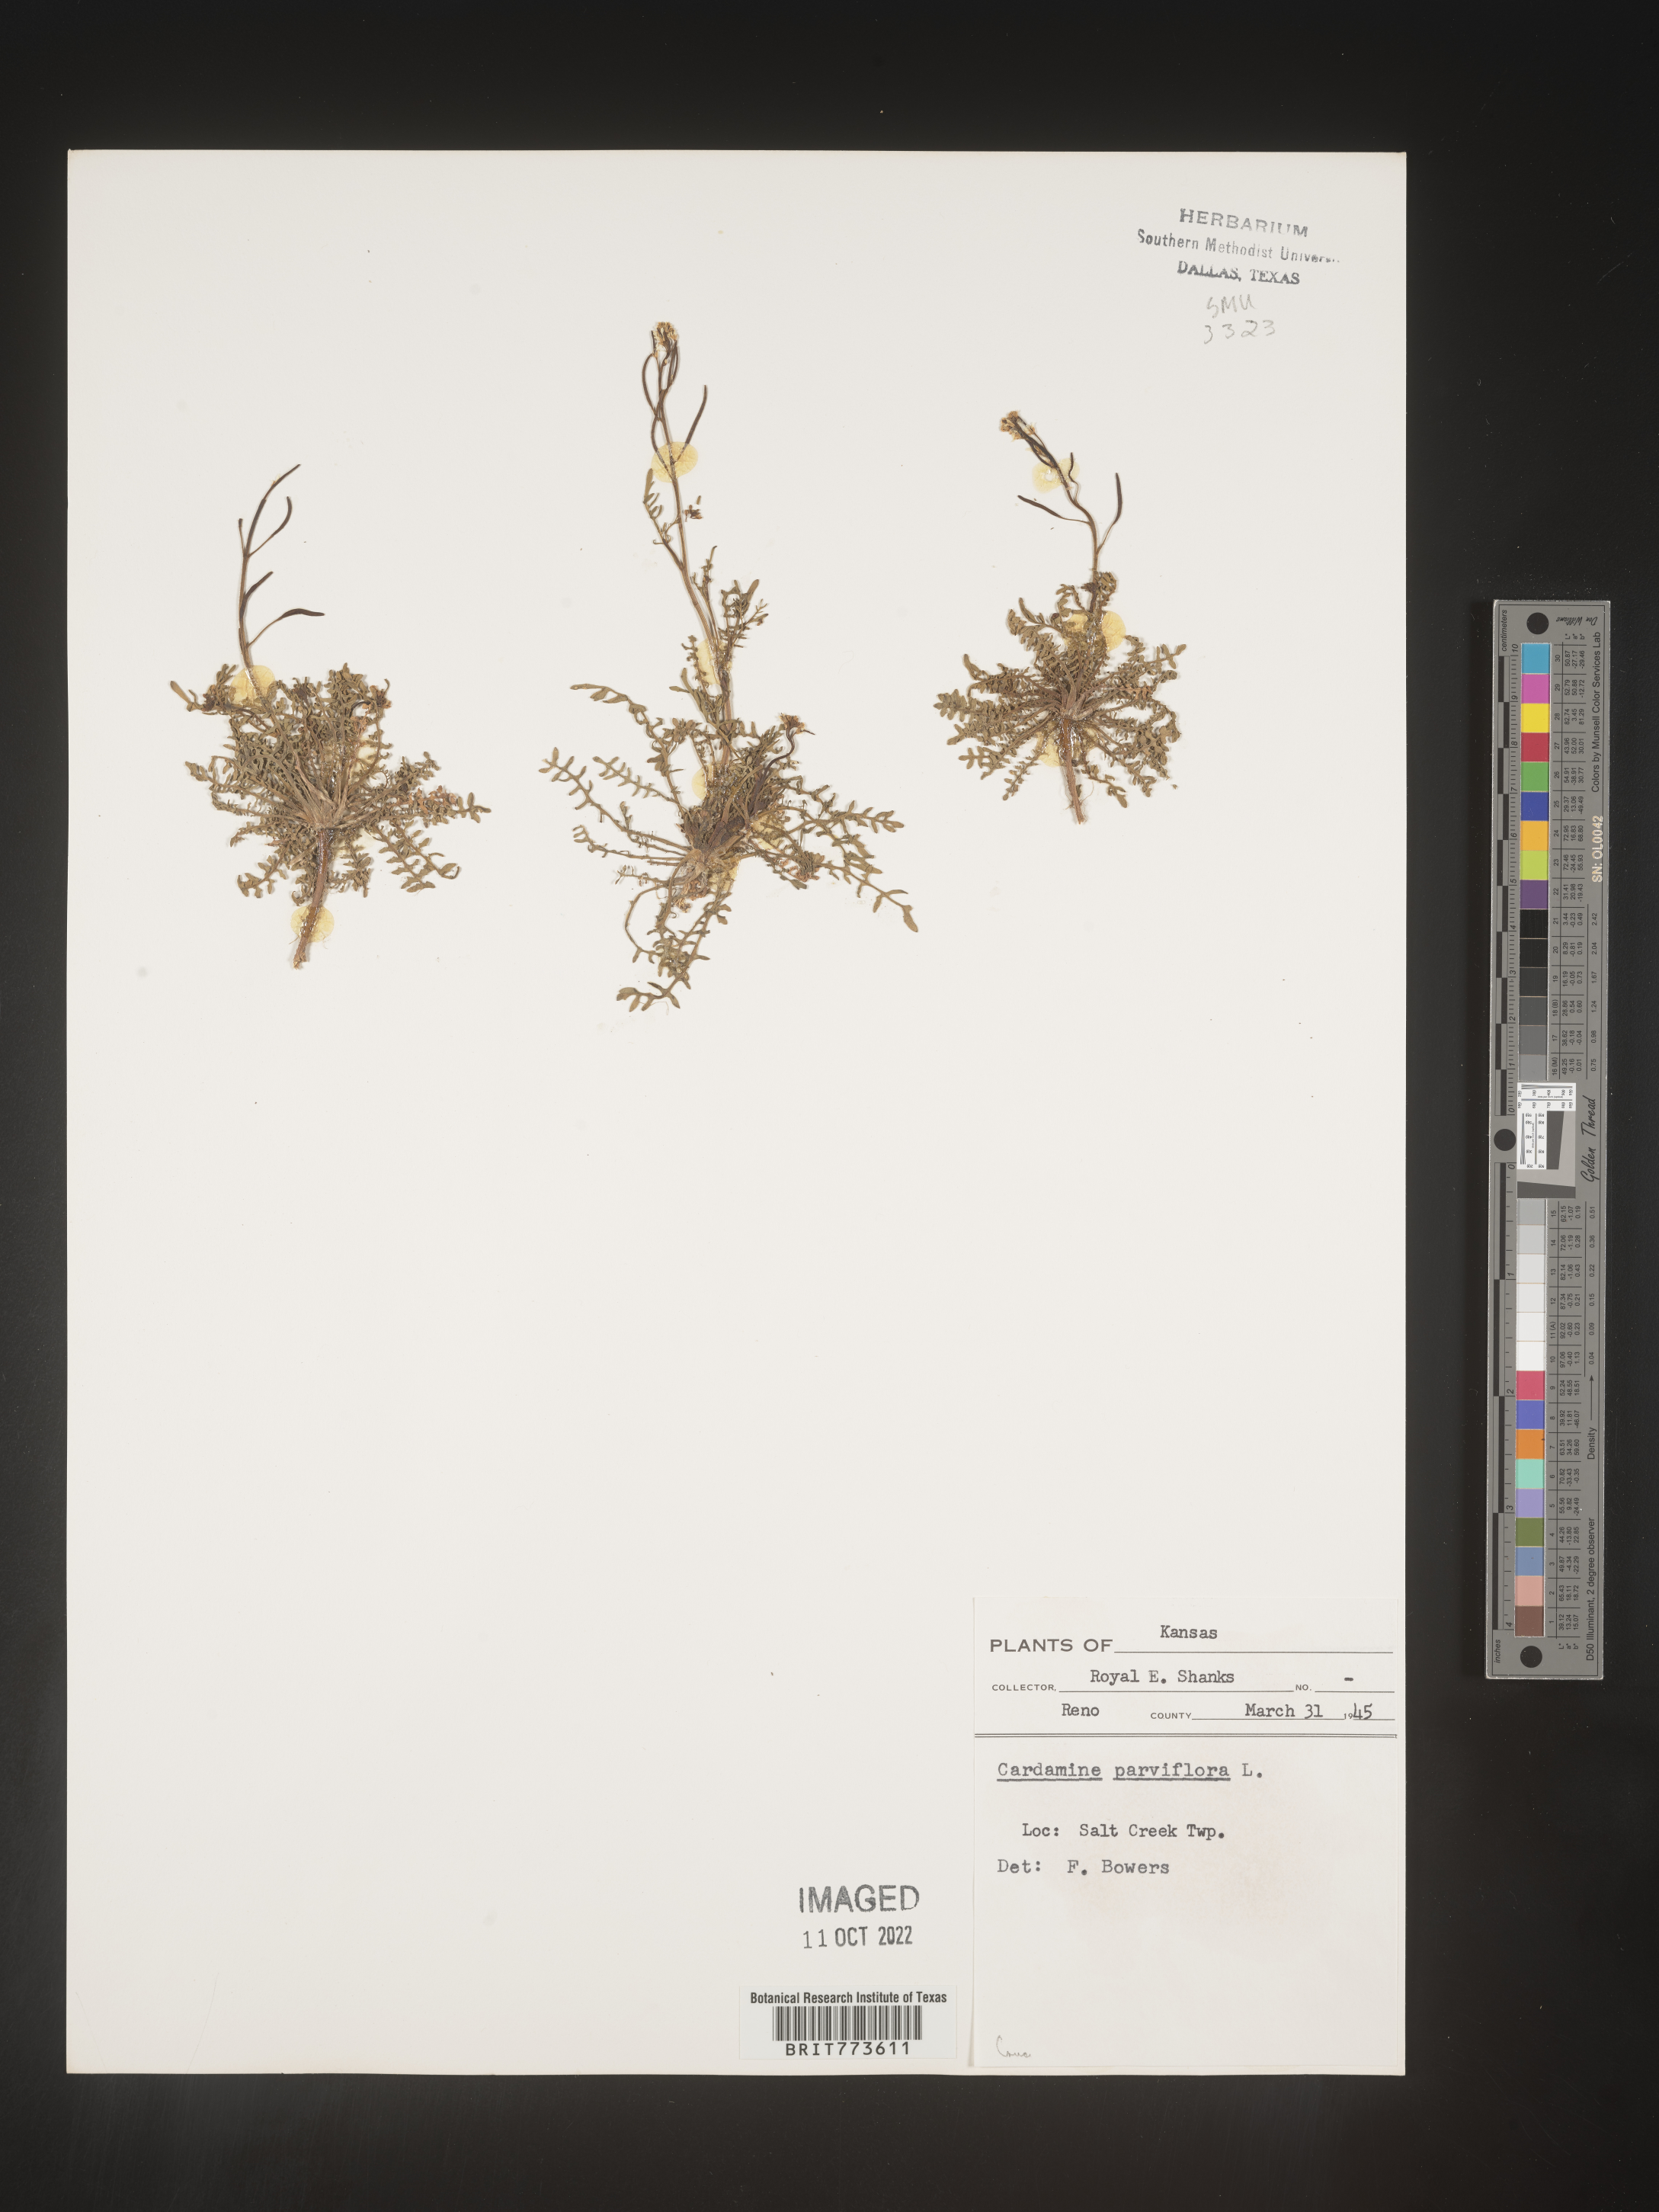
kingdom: Plantae
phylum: Tracheophyta
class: Magnoliopsida
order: Brassicales
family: Brassicaceae
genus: Cardamine
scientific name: Cardamine parviflora
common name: Sand bittercress
